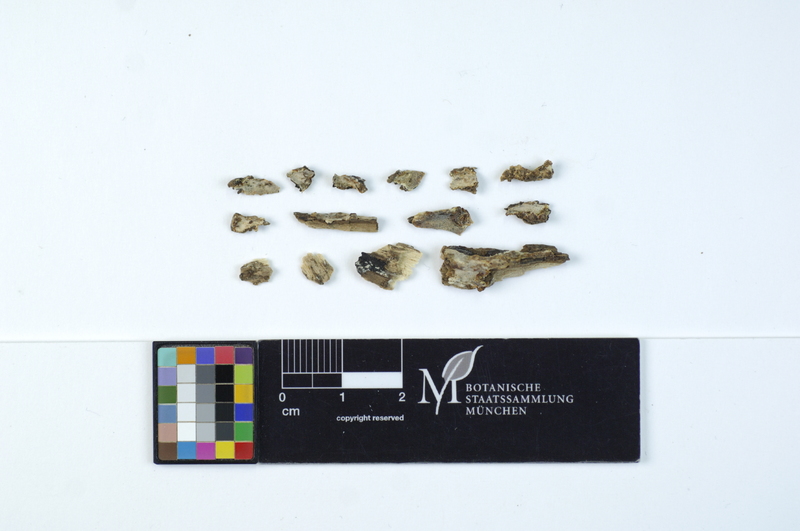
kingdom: Fungi
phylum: Basidiomycota
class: Agaricomycetes
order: Polyporales
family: Meruliaceae
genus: Physisporinus
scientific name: Physisporinus vitreus
